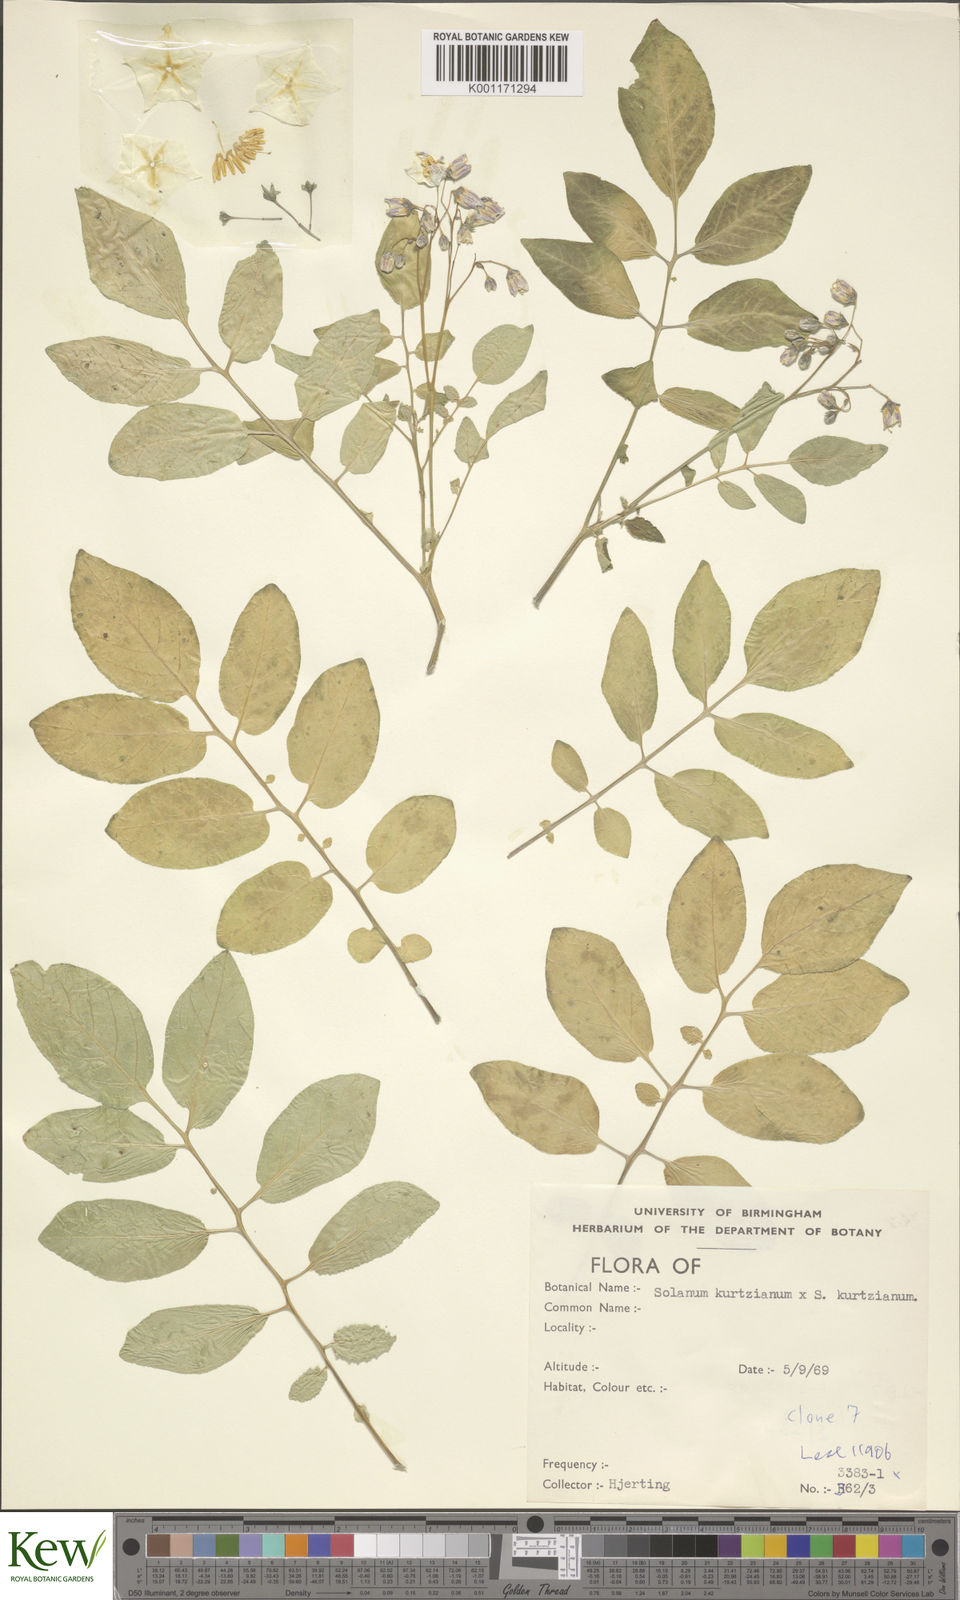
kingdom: Plantae
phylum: Tracheophyta
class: Magnoliopsida
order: Solanales
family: Solanaceae
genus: Solanum
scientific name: Solanum kurtzianum
